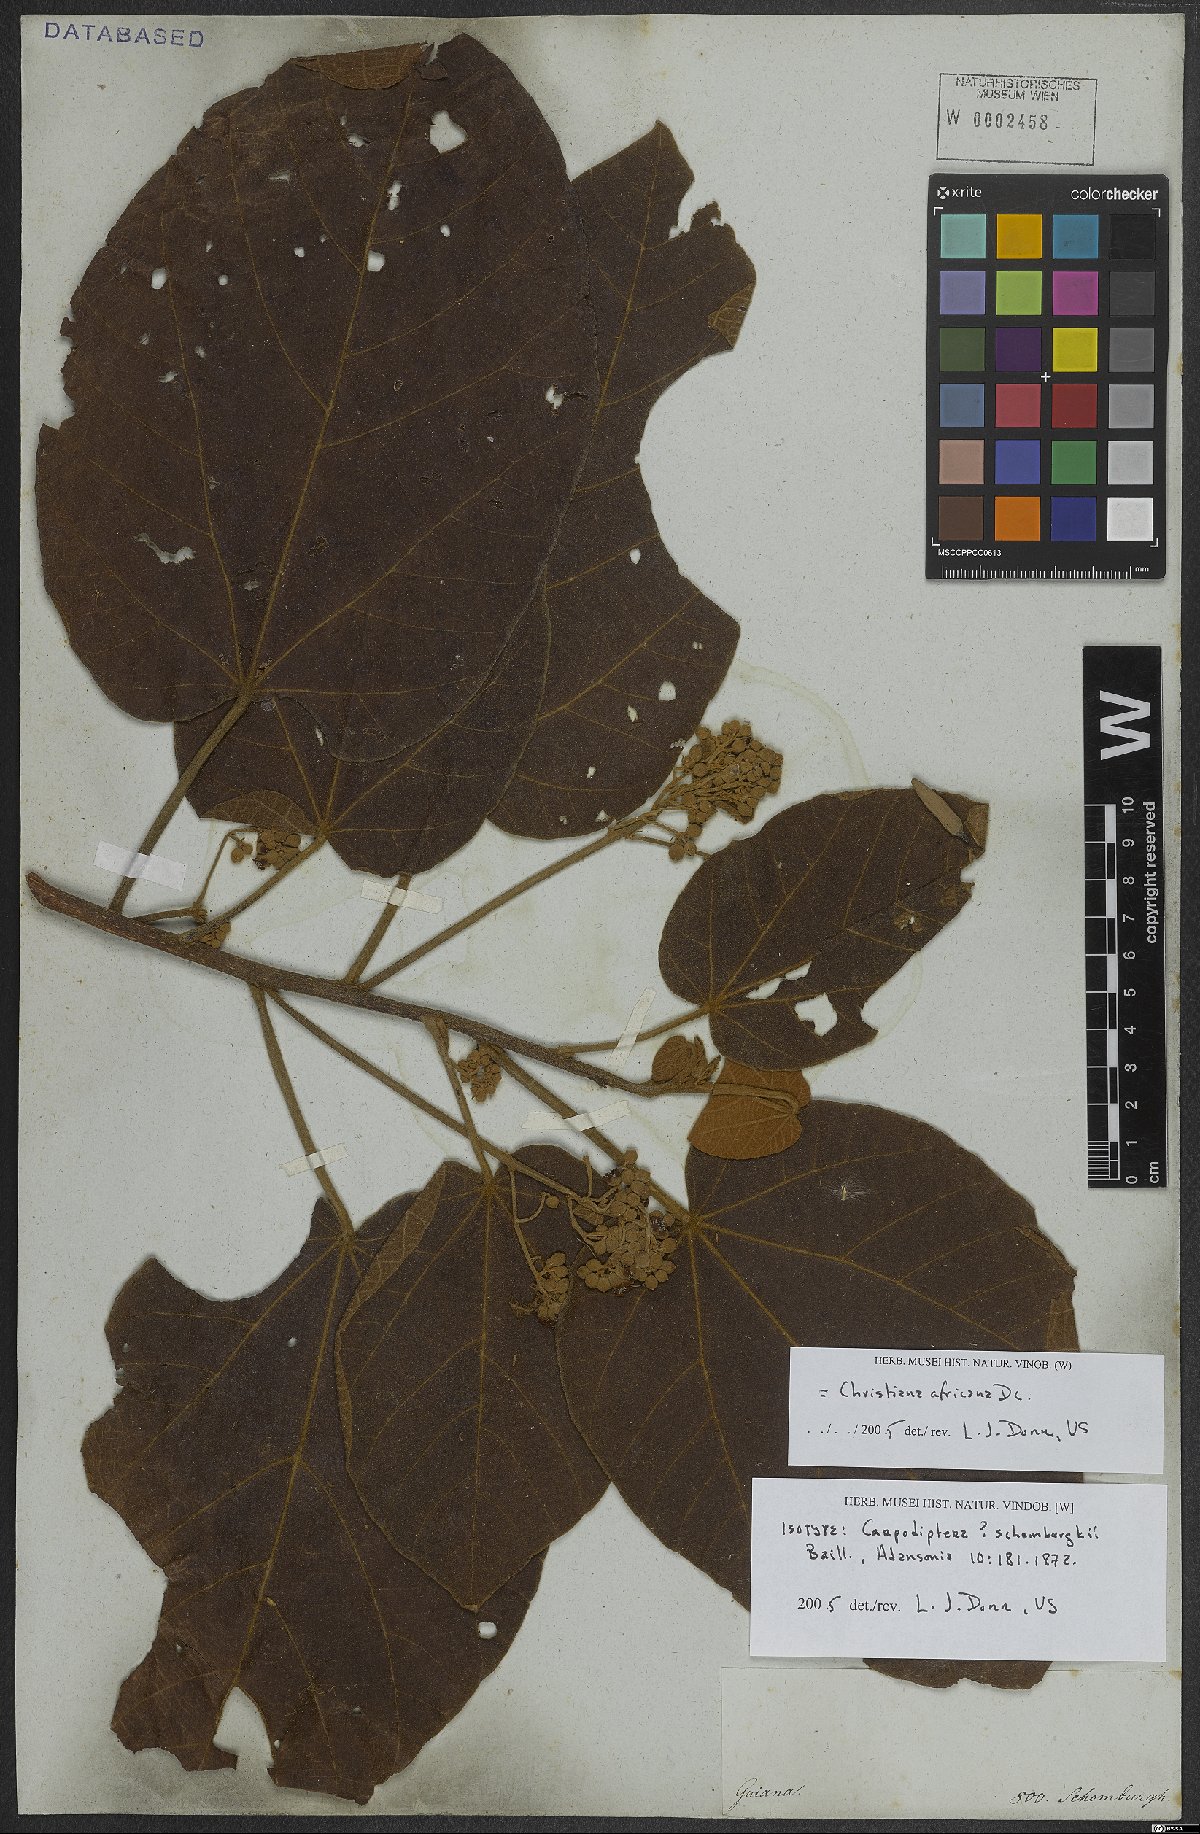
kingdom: Plantae
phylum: Tracheophyta
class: Magnoliopsida
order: Malvales
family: Malvaceae
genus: Christiana
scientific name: Christiana africana
